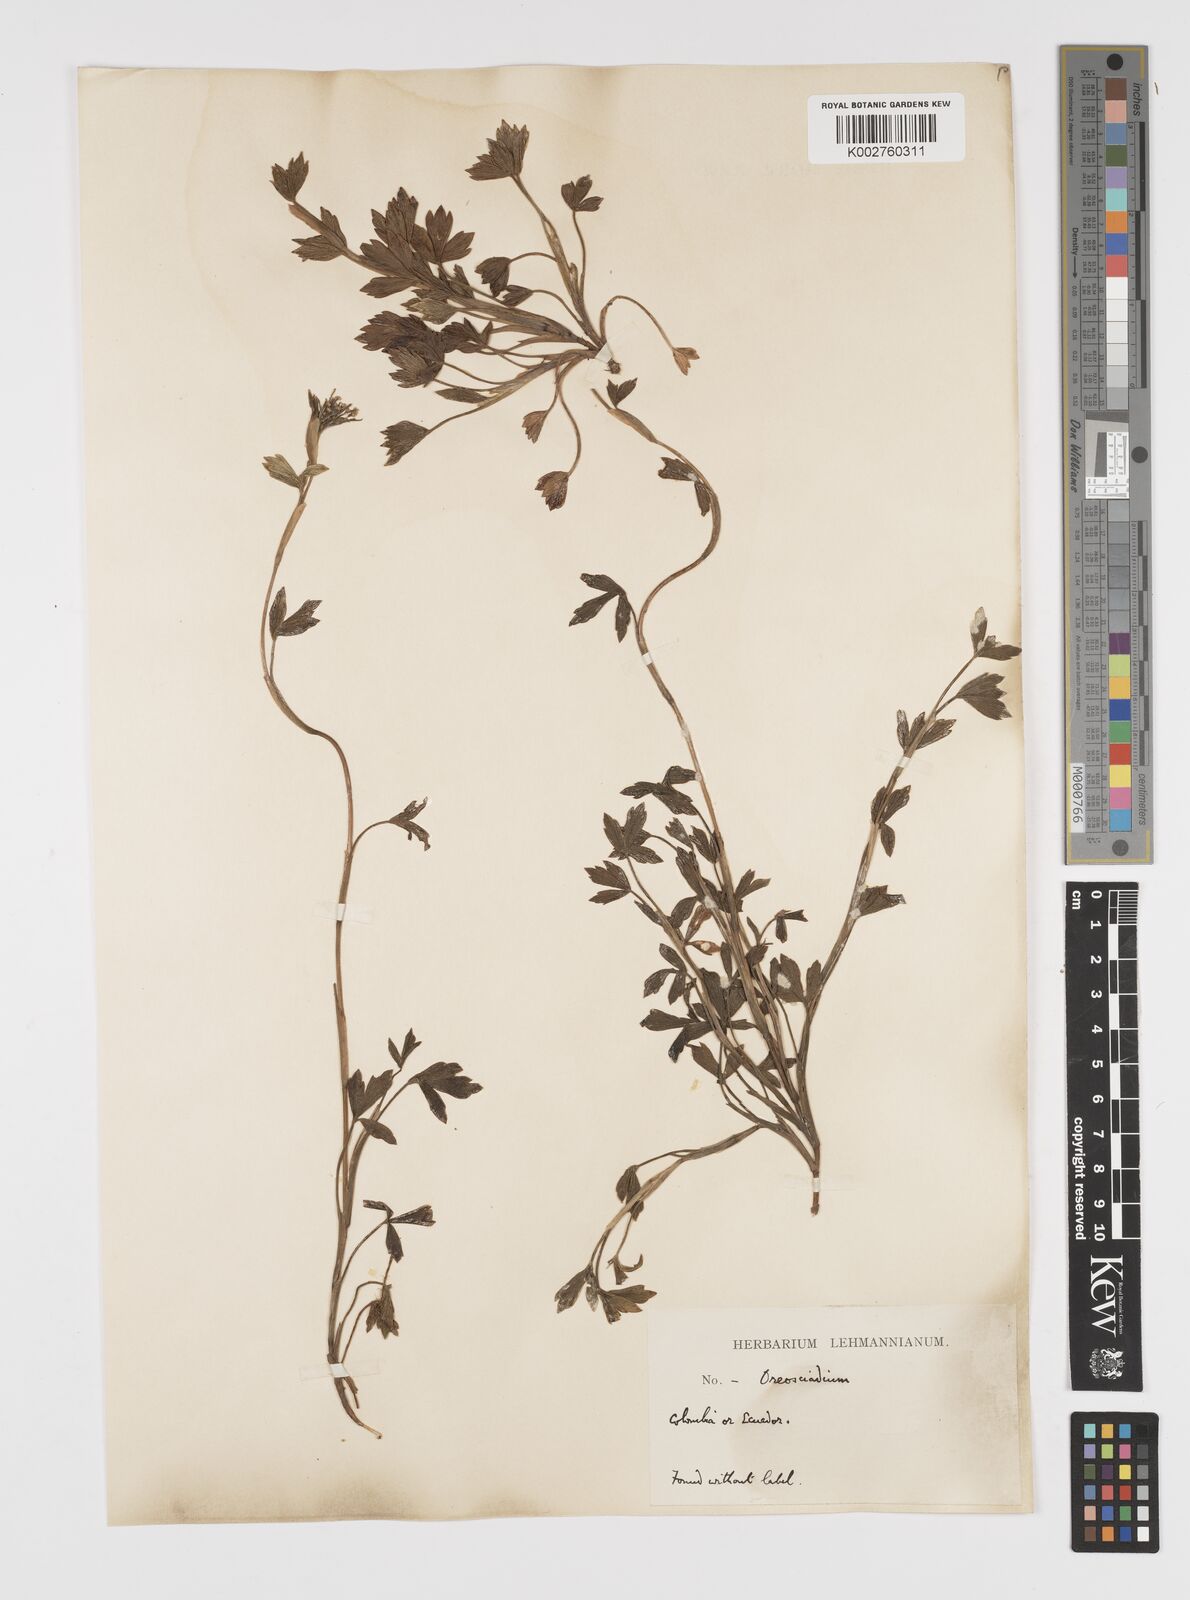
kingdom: Plantae
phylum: Tracheophyta
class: Magnoliopsida
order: Apiales
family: Apiaceae
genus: Niphogeton
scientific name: Niphogeton ternata
